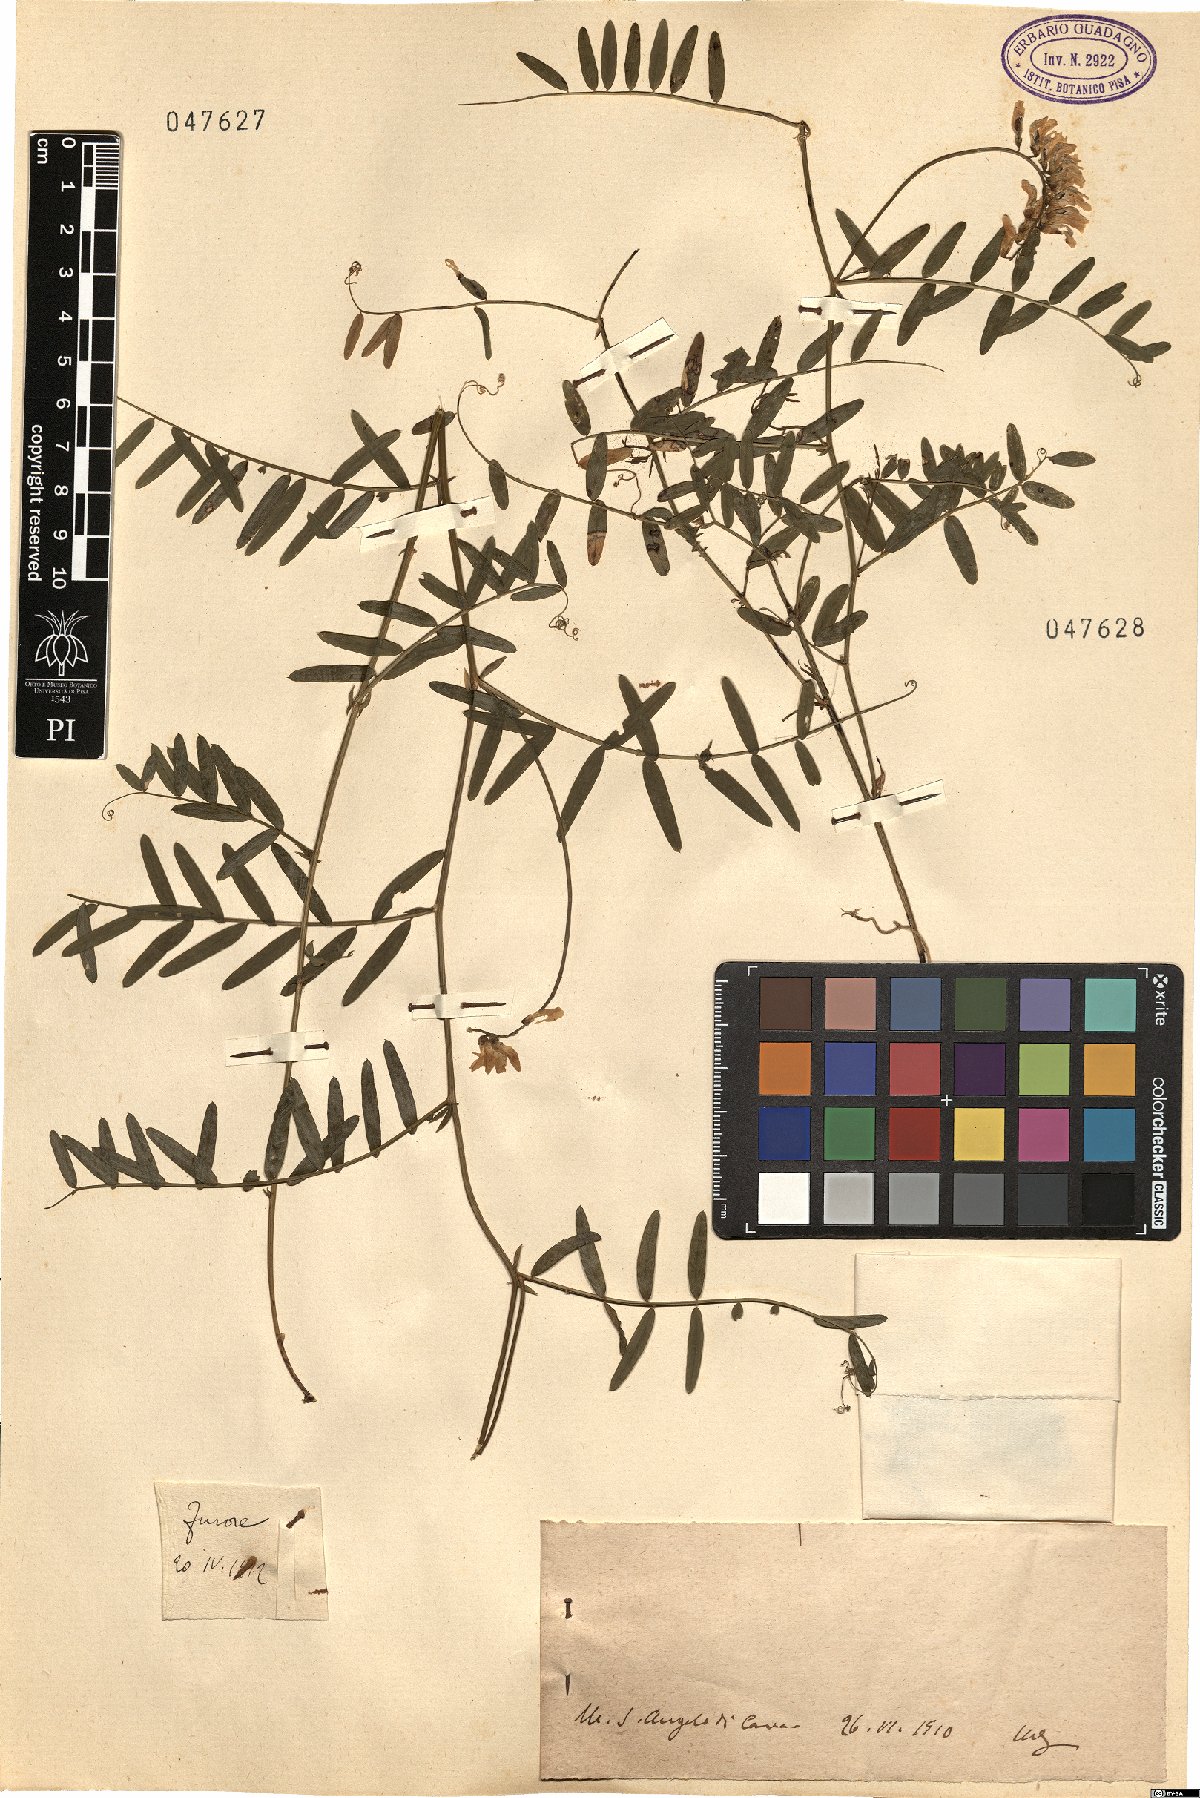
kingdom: Plantae
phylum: Tracheophyta
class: Magnoliopsida
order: Fabales
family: Fabaceae
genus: Vicia
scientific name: Vicia
